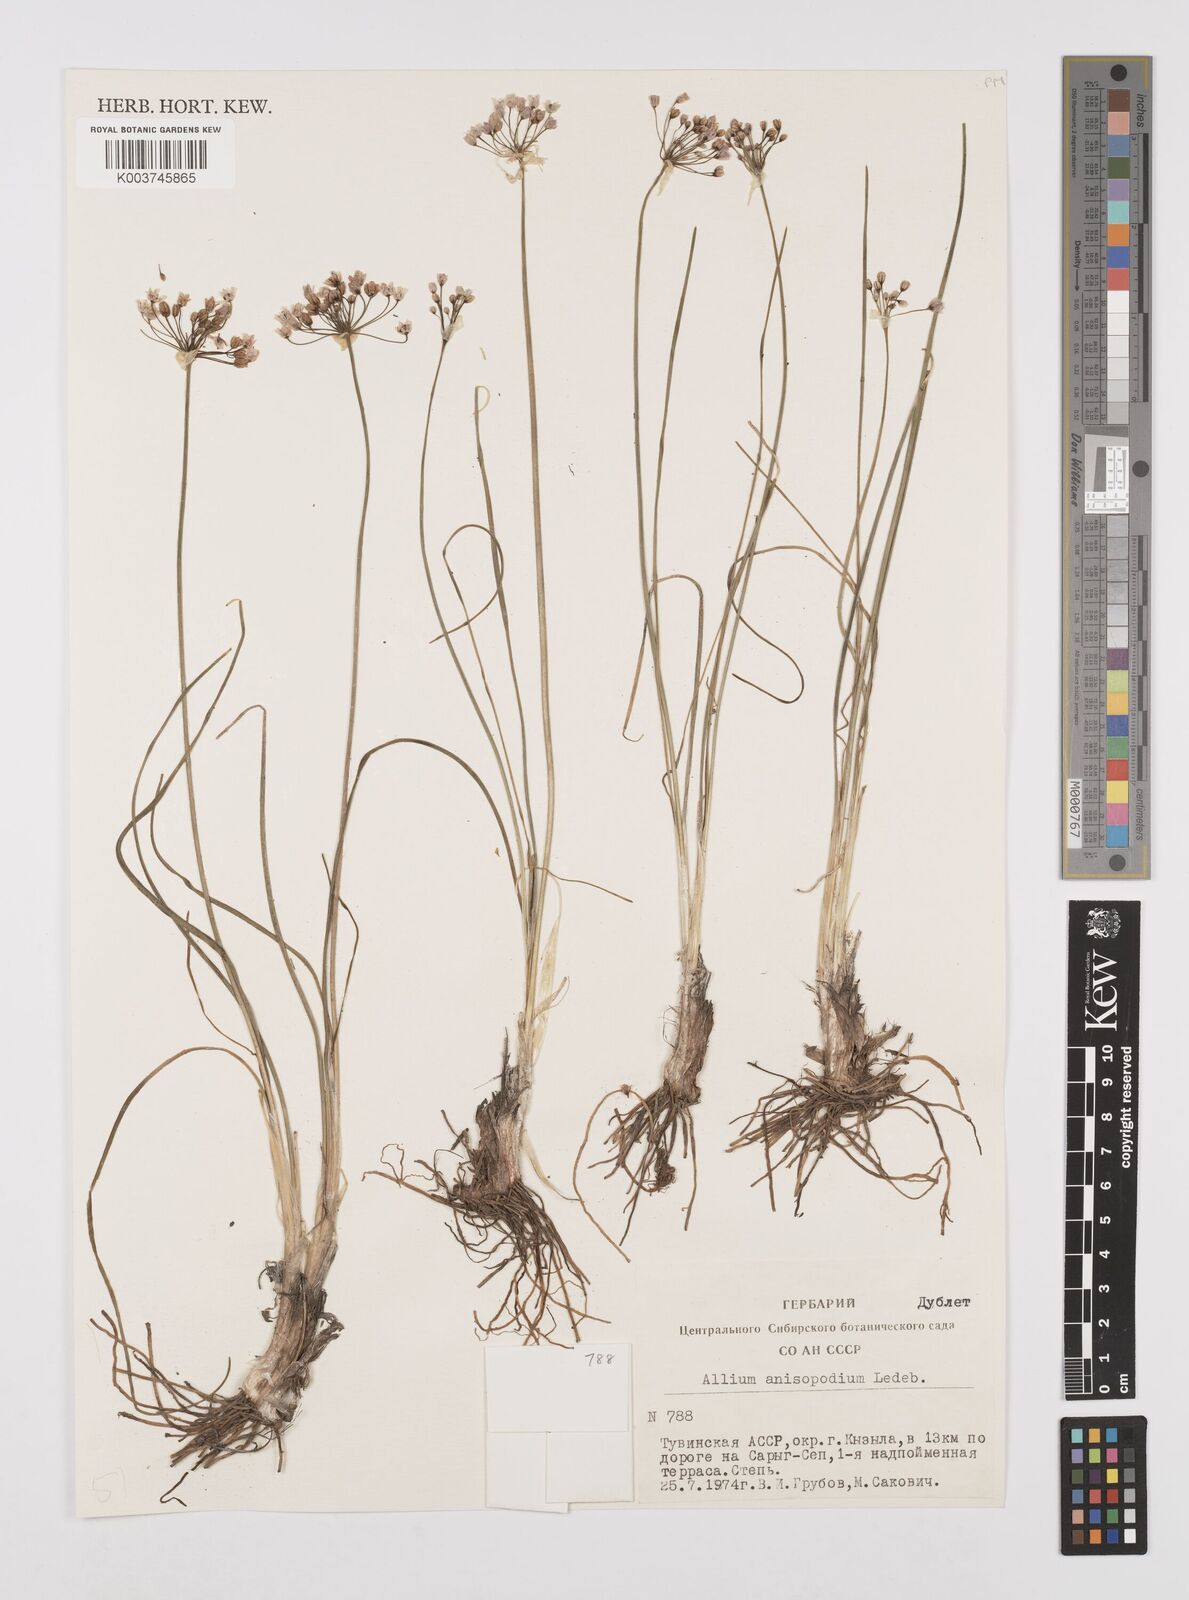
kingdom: Plantae
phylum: Tracheophyta
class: Liliopsida
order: Asparagales
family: Amaryllidaceae
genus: Allium
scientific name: Allium anisopodium
